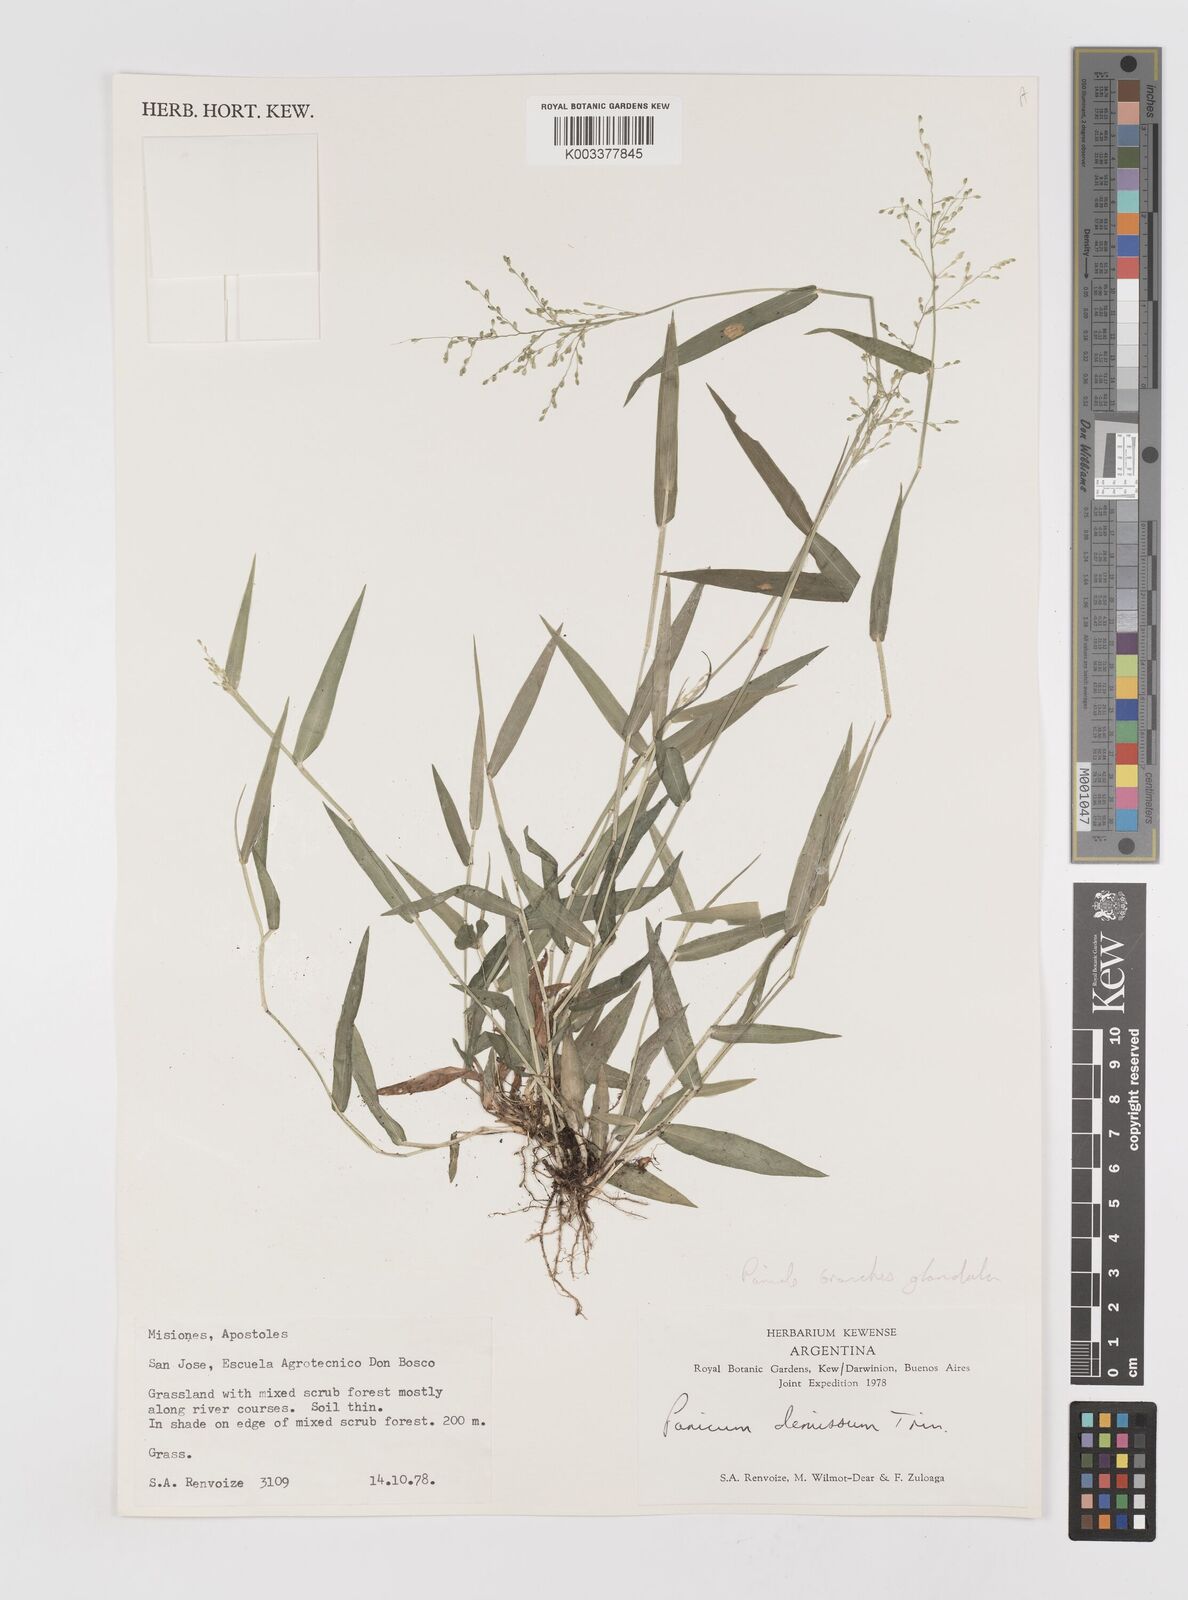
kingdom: Plantae
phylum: Tracheophyta
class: Liliopsida
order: Poales
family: Poaceae
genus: Dichanthelium
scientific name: Dichanthelium stigmosum
